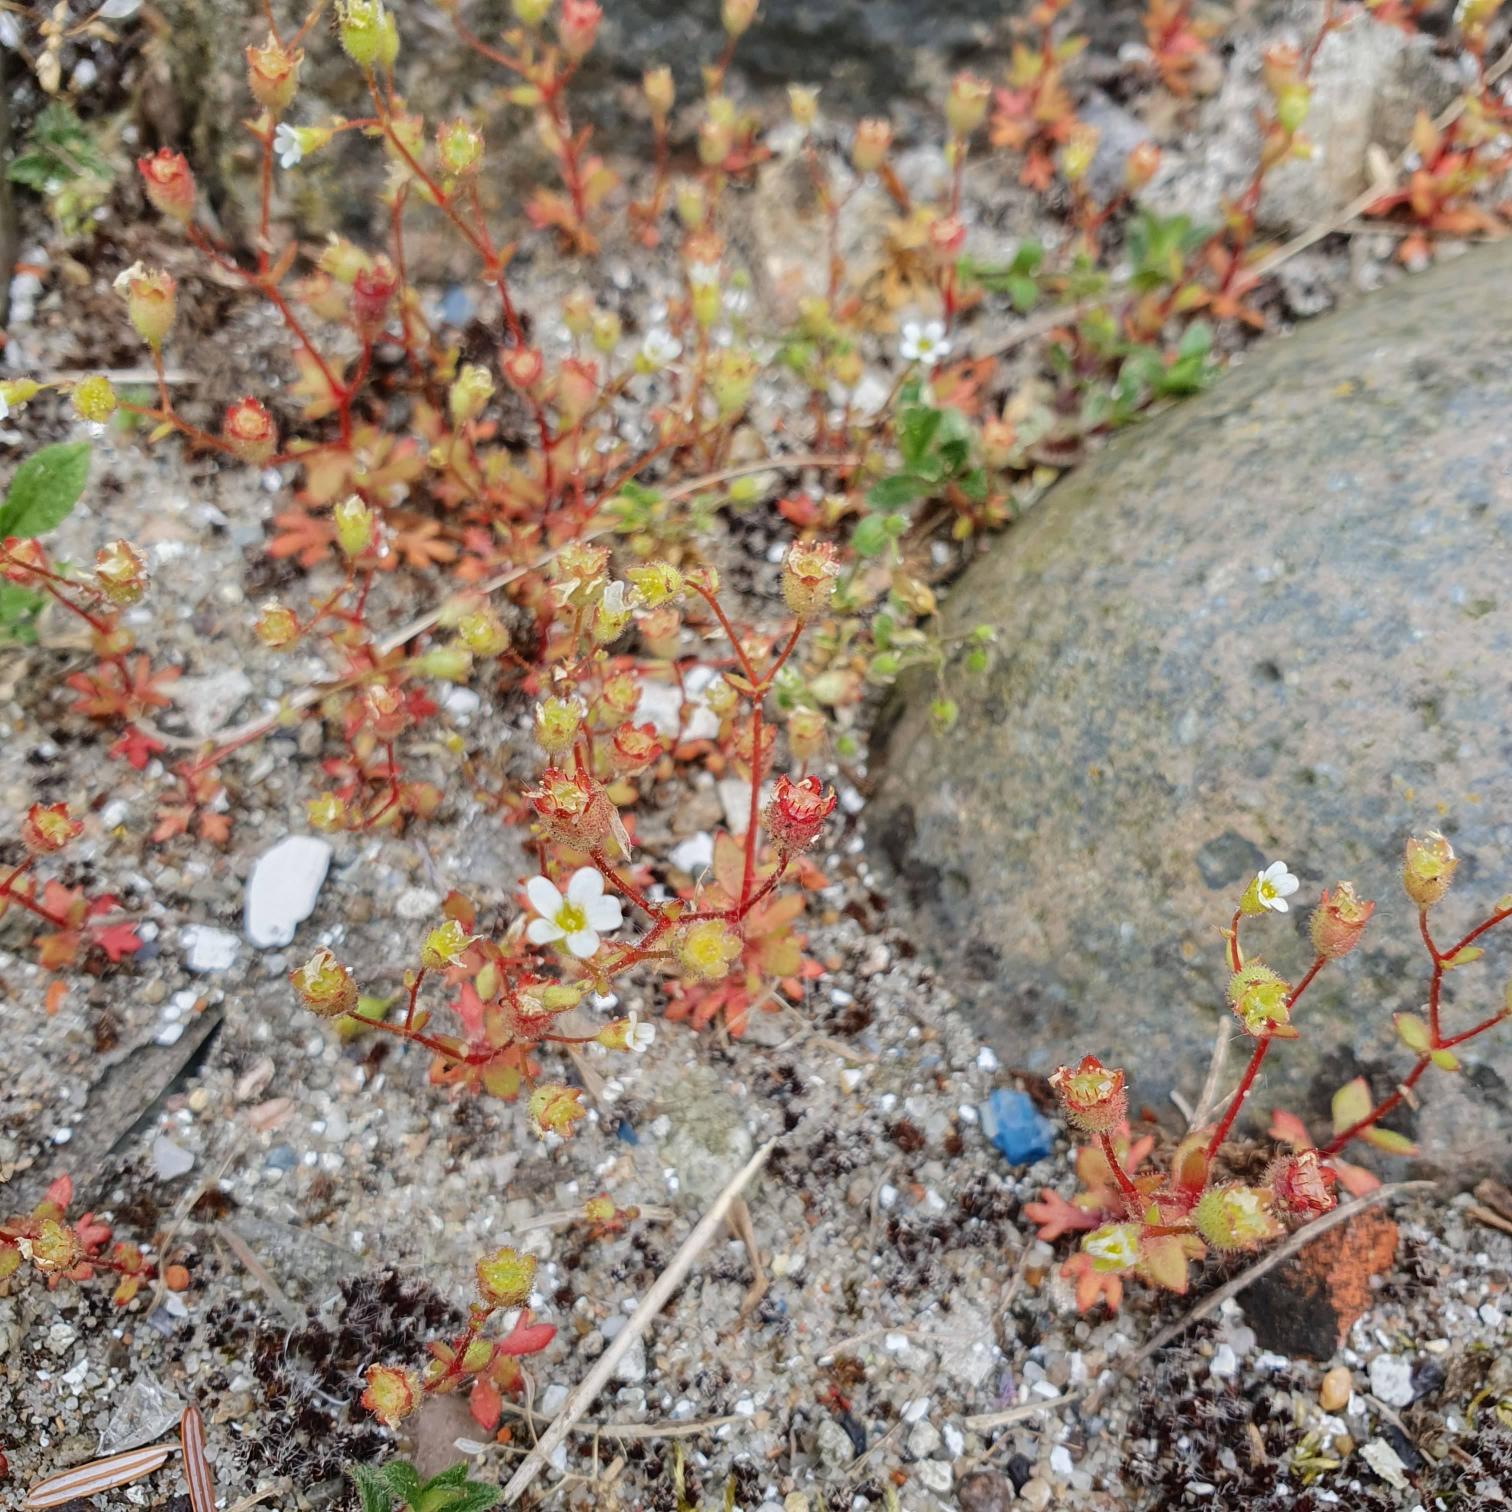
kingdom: Plantae
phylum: Tracheophyta
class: Magnoliopsida
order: Saxifragales
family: Saxifragaceae
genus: Saxifraga
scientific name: Saxifraga tridactylites
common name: Trekløft-stenbræk
